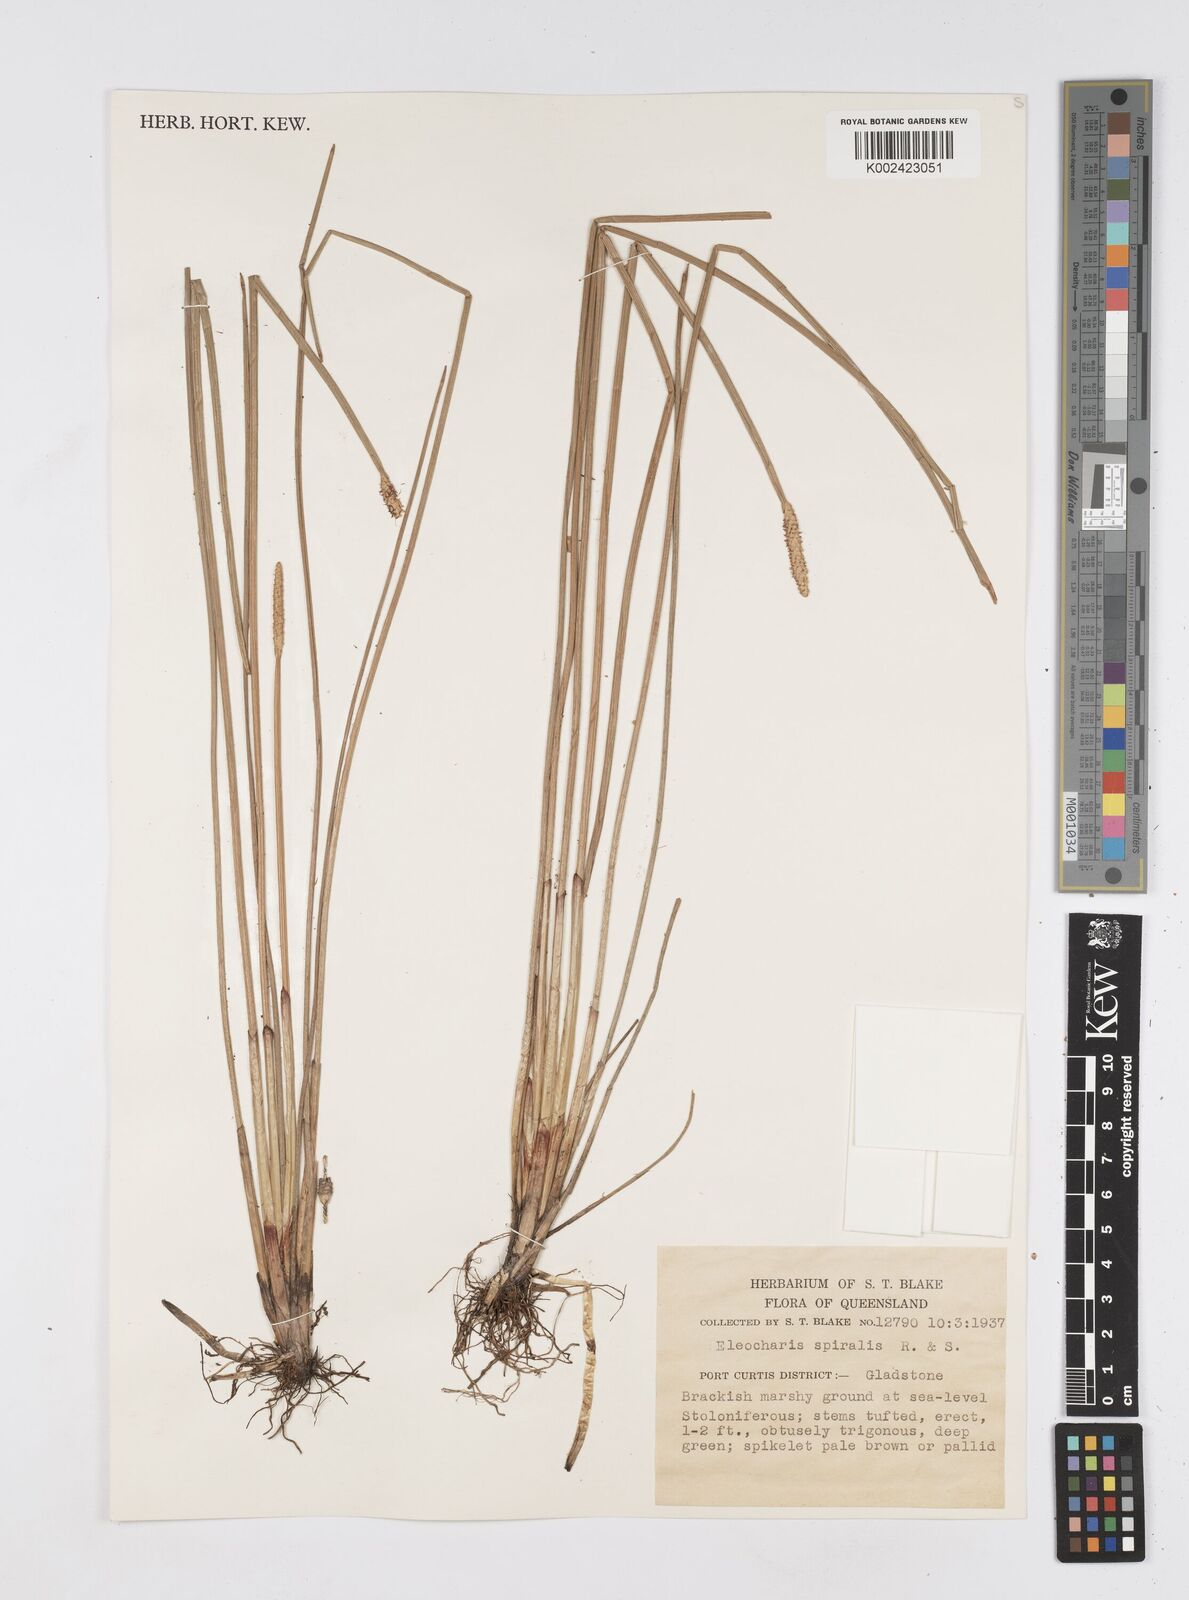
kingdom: Plantae
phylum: Tracheophyta
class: Liliopsida
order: Poales
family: Cyperaceae
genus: Eleocharis
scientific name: Eleocharis spiralis
